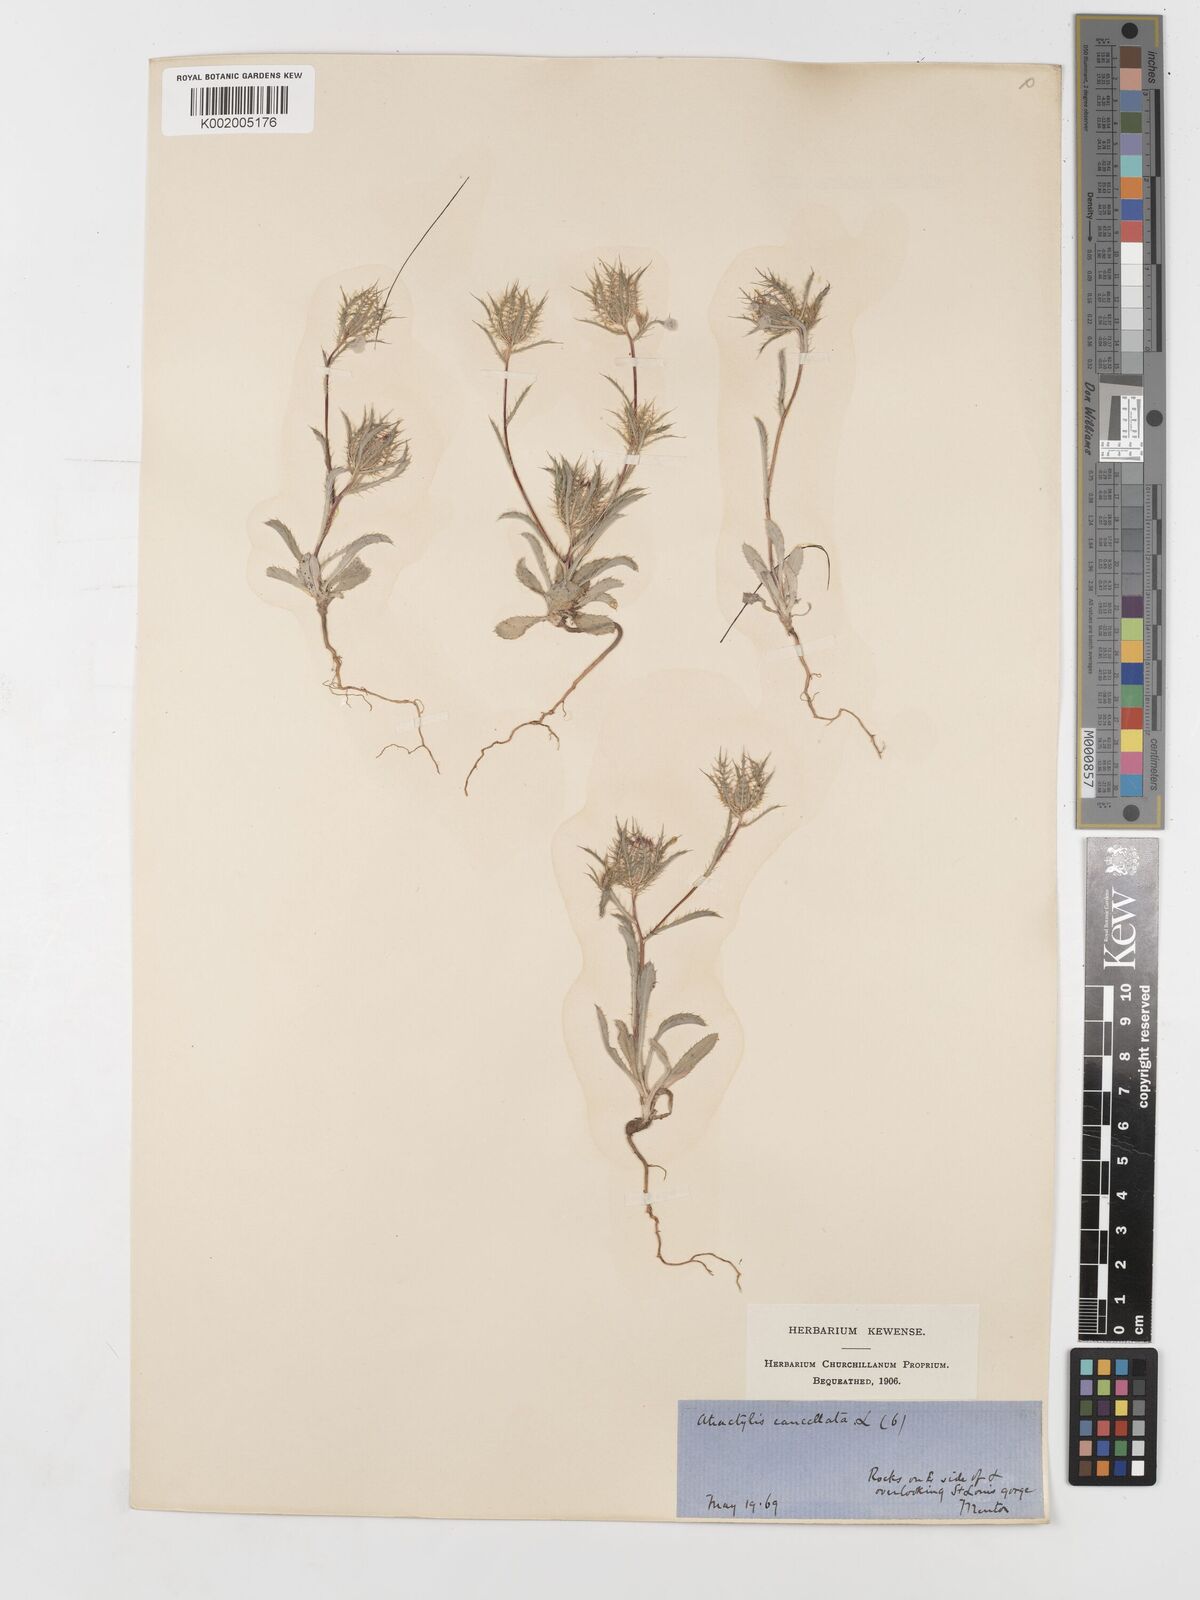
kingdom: Plantae
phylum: Tracheophyta
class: Magnoliopsida
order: Asterales
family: Asteraceae
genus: Atractylis
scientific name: Atractylis cancellata
